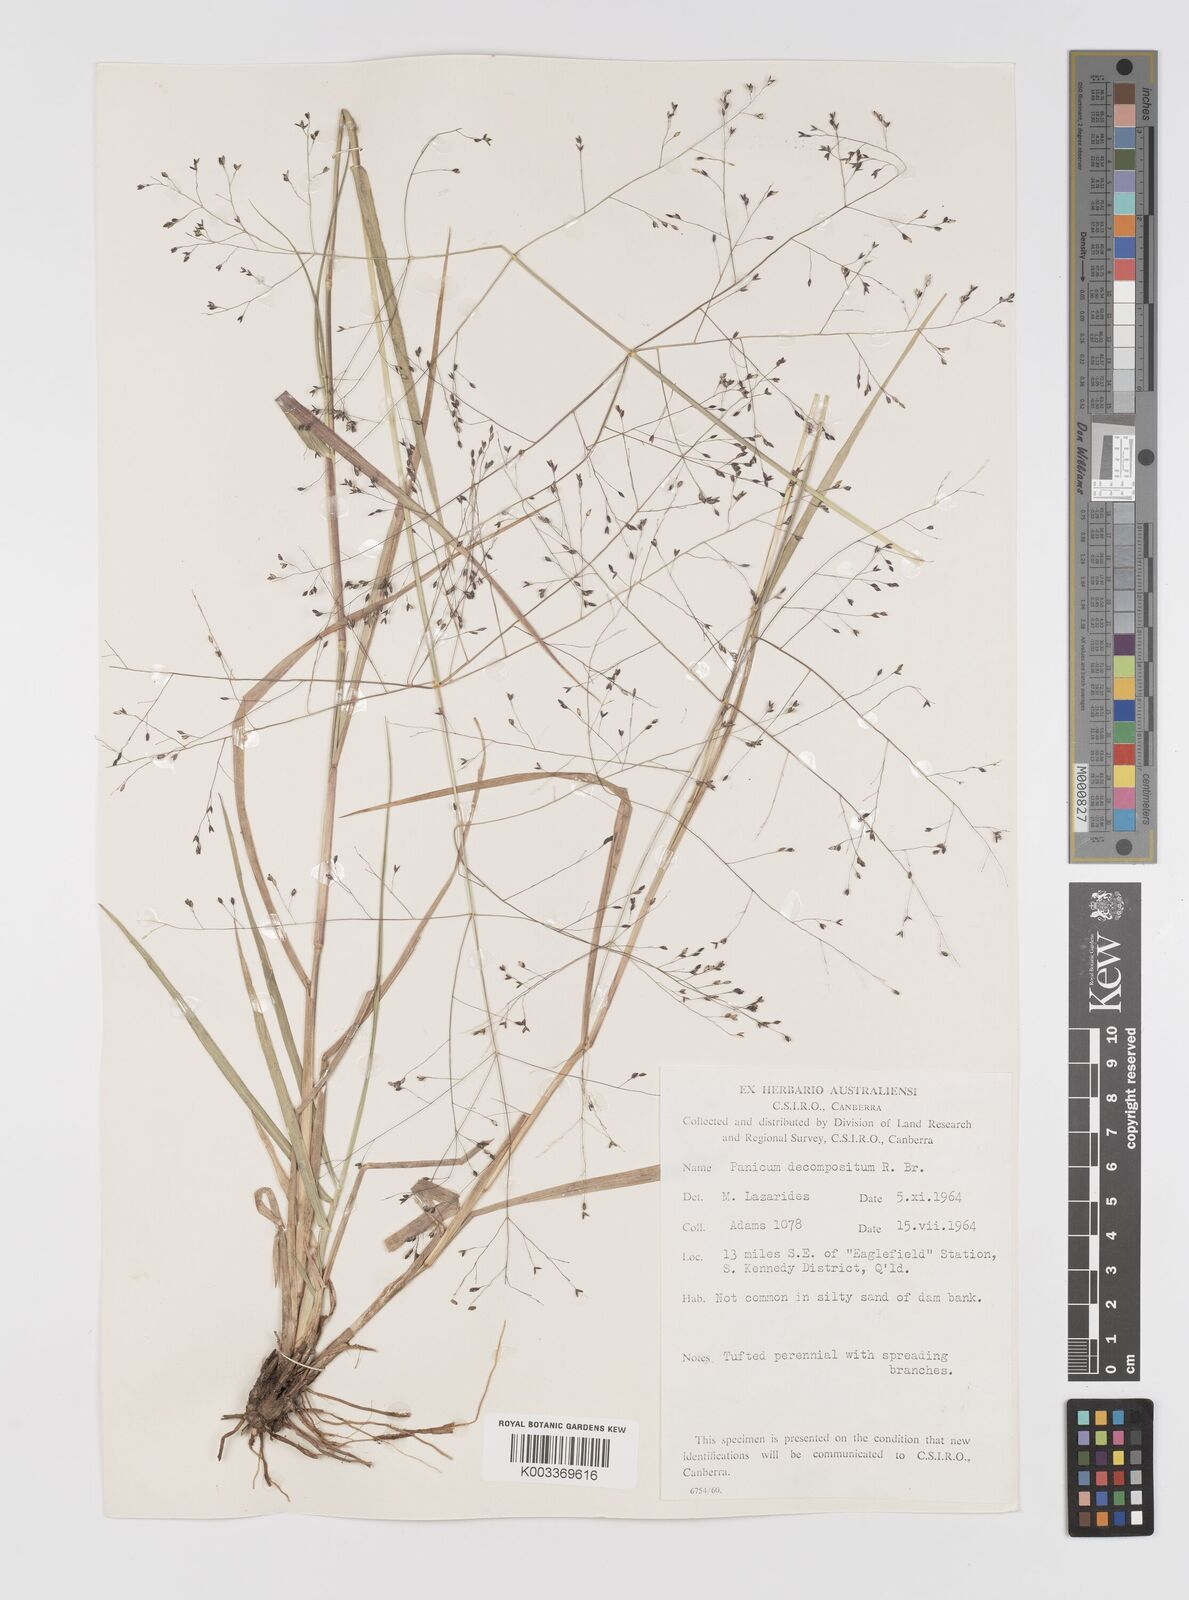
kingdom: Plantae
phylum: Tracheophyta
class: Liliopsida
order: Poales
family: Poaceae
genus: Panicum
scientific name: Panicum decompositum
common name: Australian millet
